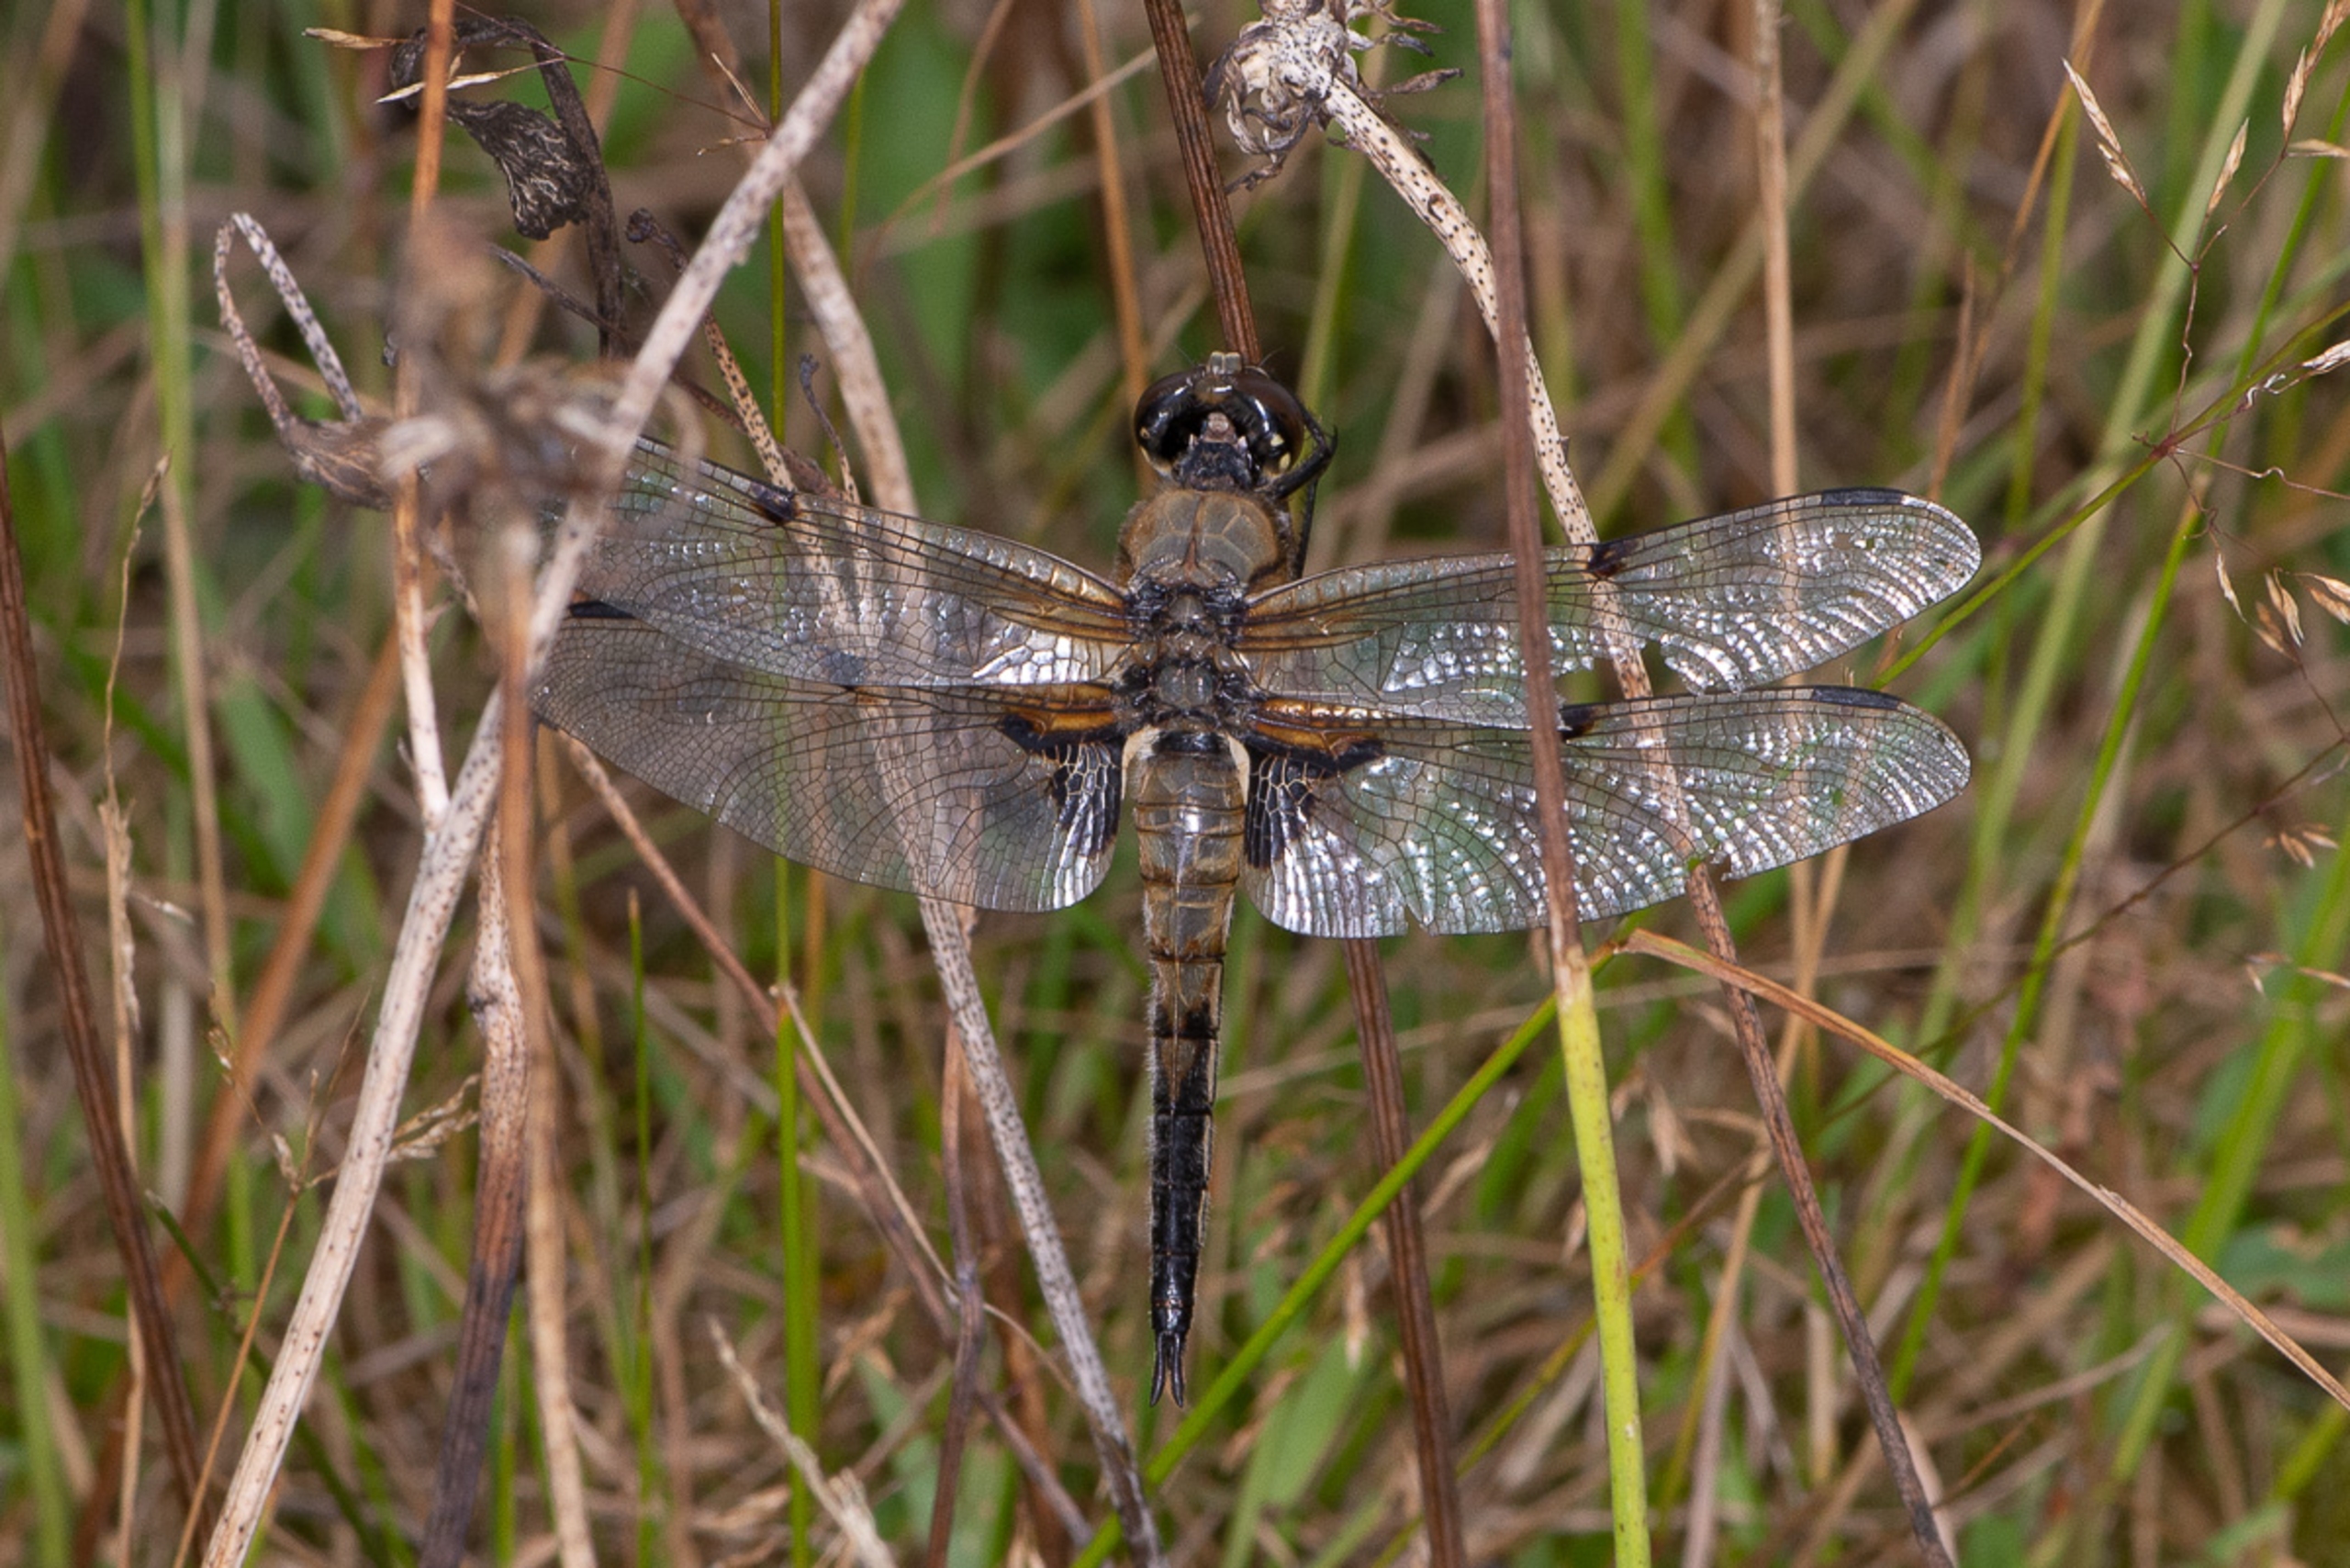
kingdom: Animalia
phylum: Arthropoda
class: Insecta
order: Odonata
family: Libellulidae
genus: Libellula
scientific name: Libellula quadrimaculata
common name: Fireplettet libel
